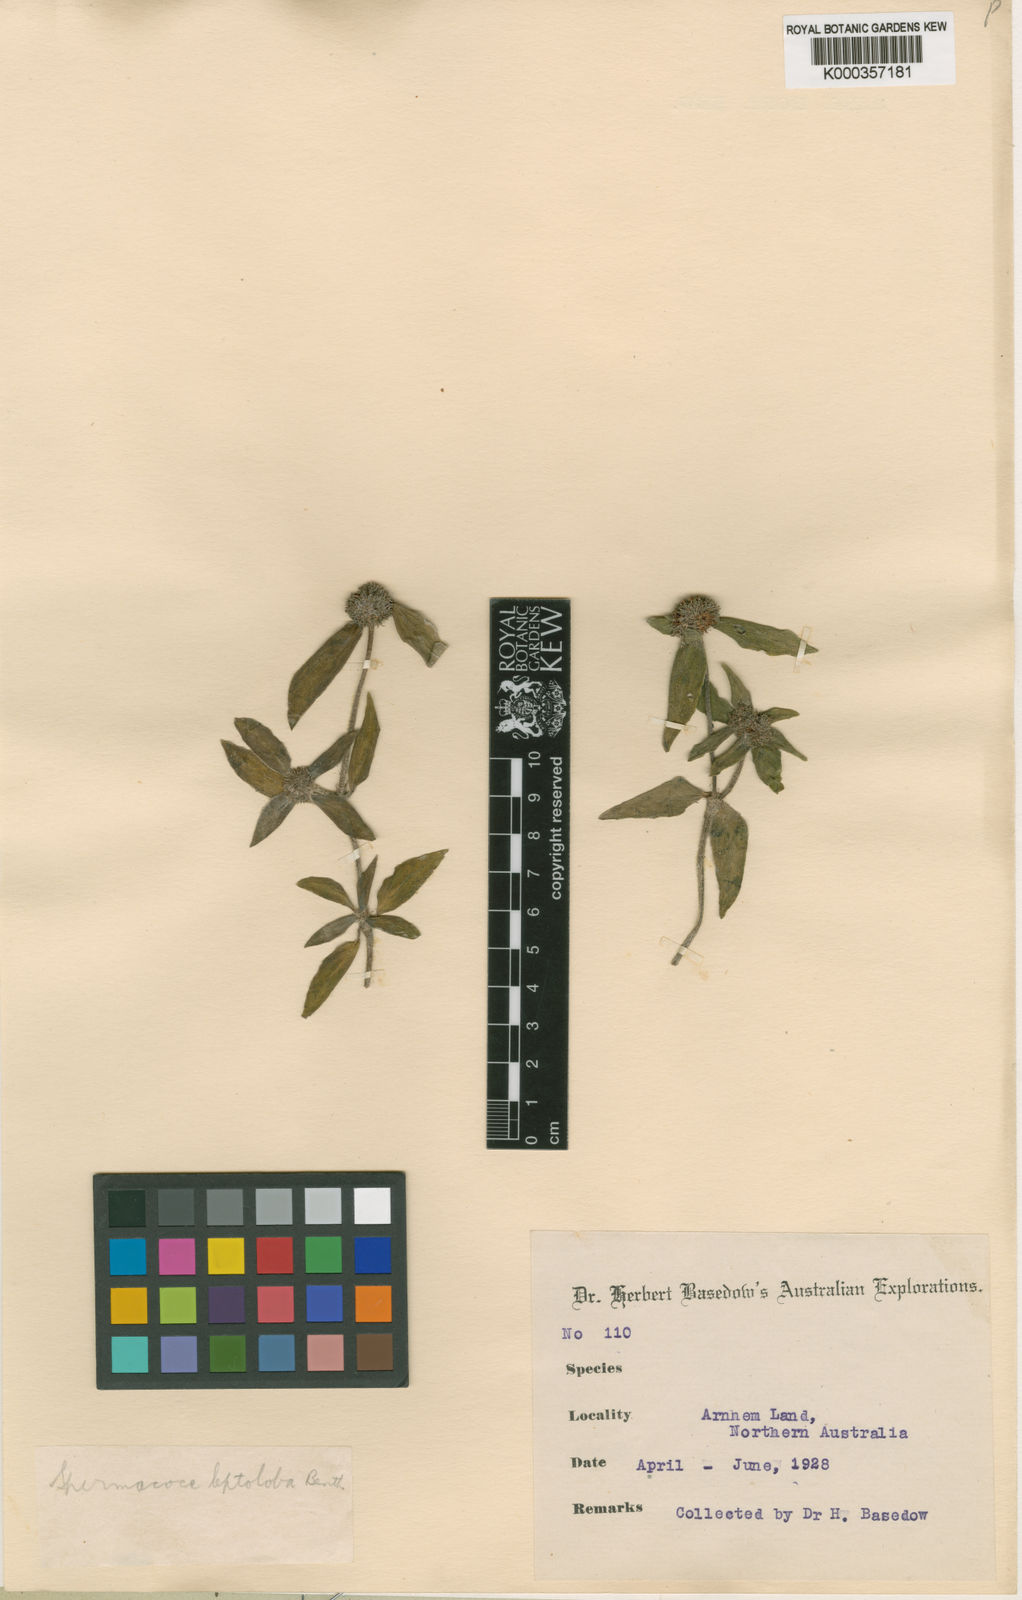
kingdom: Plantae
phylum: Tracheophyta
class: Magnoliopsida
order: Gentianales
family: Rubiaceae
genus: Spermacoce
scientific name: Spermacoce leptoloba
